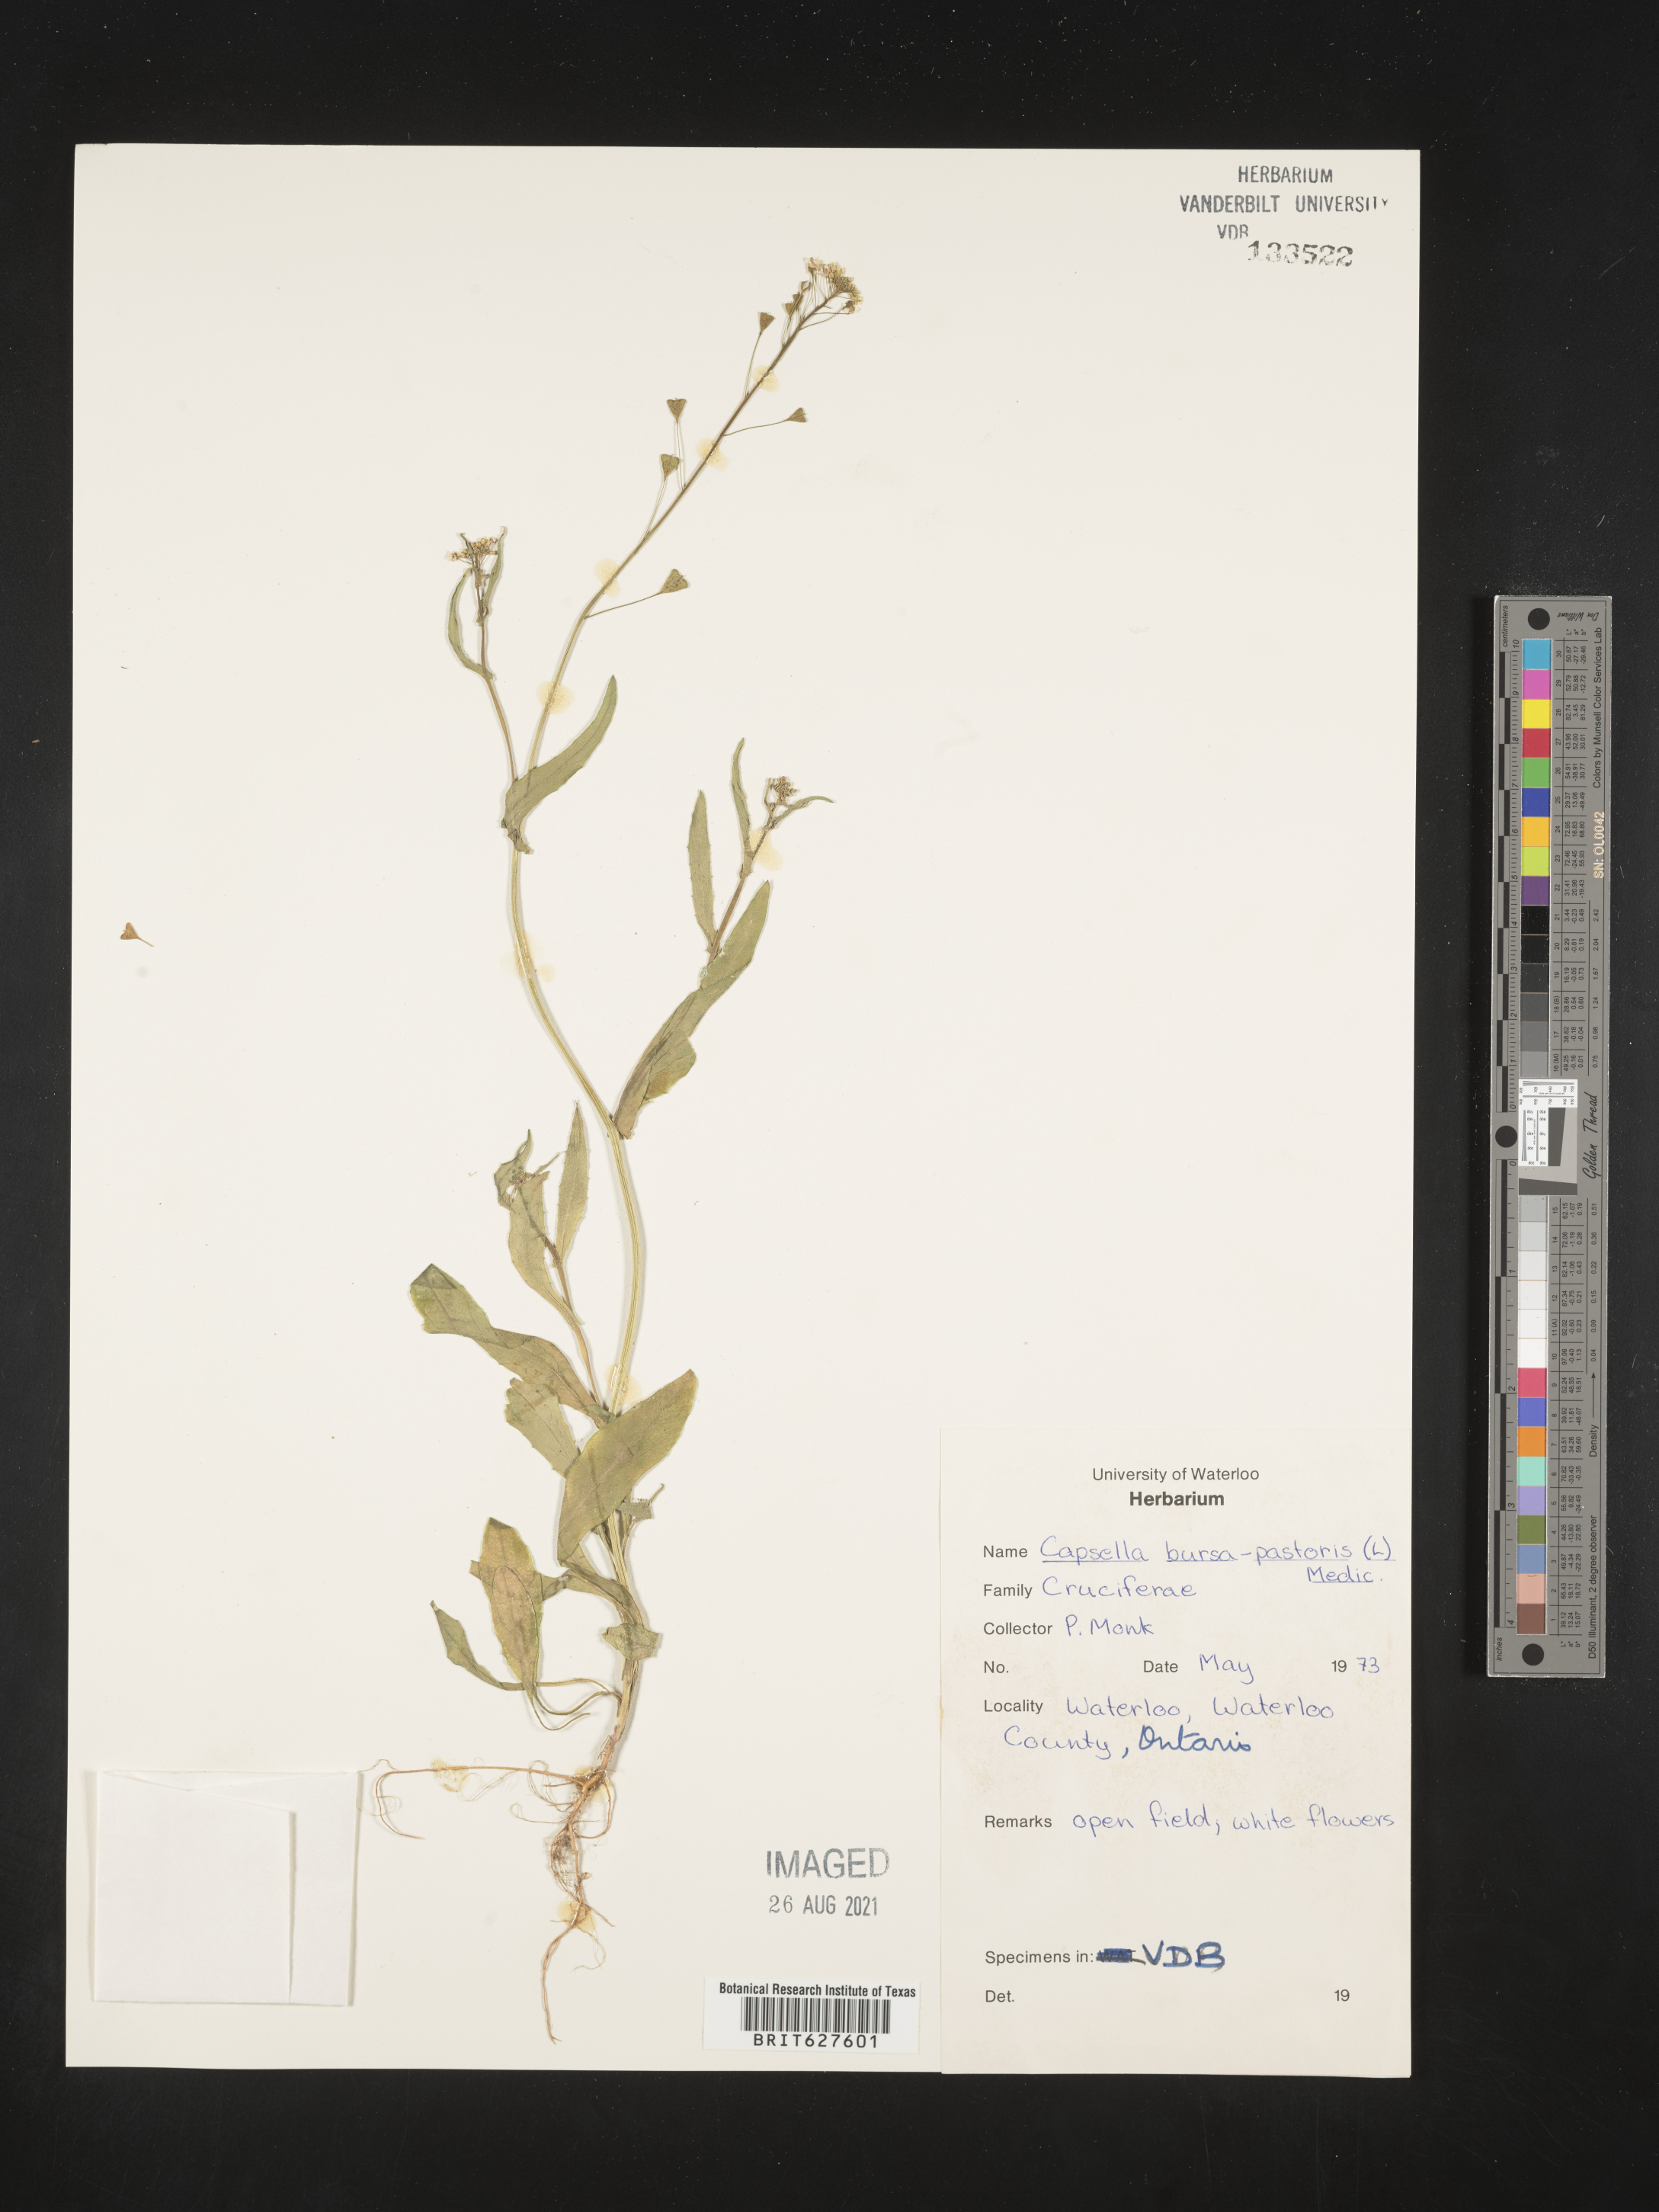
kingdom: Plantae
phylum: Tracheophyta
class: Magnoliopsida
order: Brassicales
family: Brassicaceae
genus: Capsella
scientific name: Capsella bursa-pastoris
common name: Shepherd's purse
